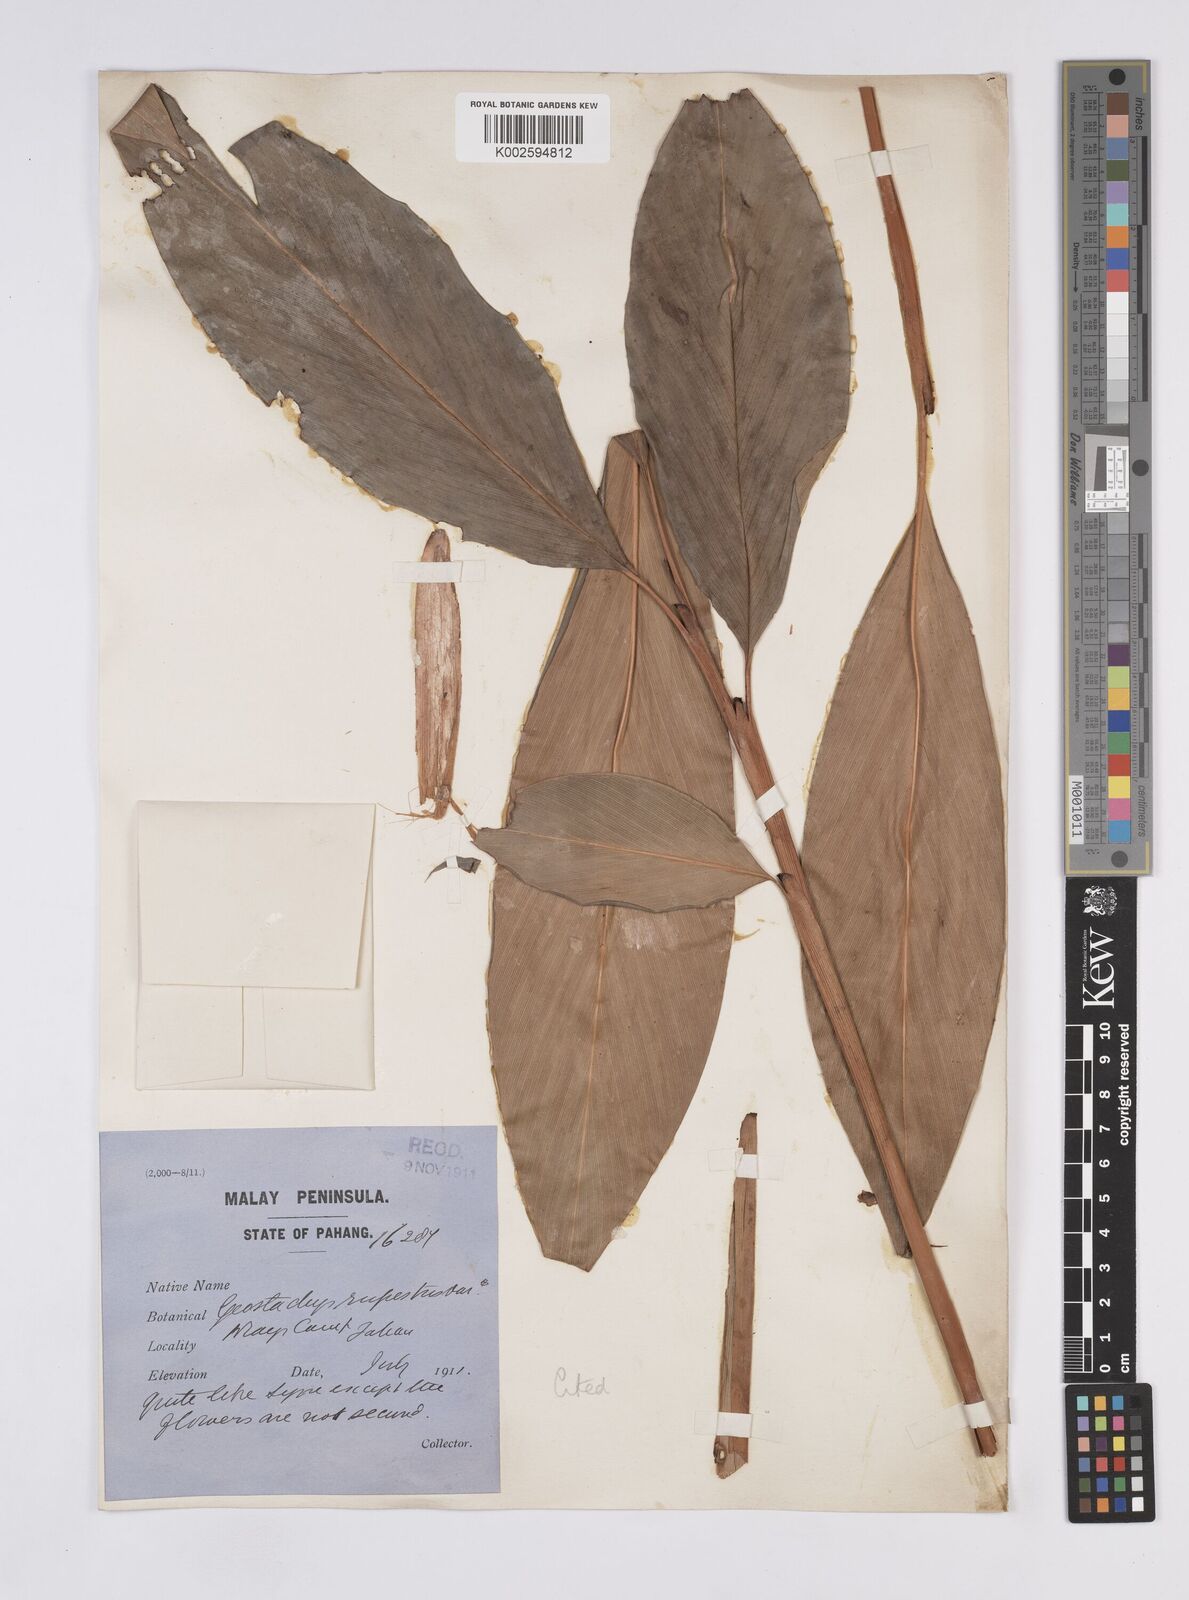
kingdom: Plantae
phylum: Tracheophyta
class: Liliopsida
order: Zingiberales
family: Zingiberaceae
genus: Geostachys
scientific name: Geostachys tahanensis
